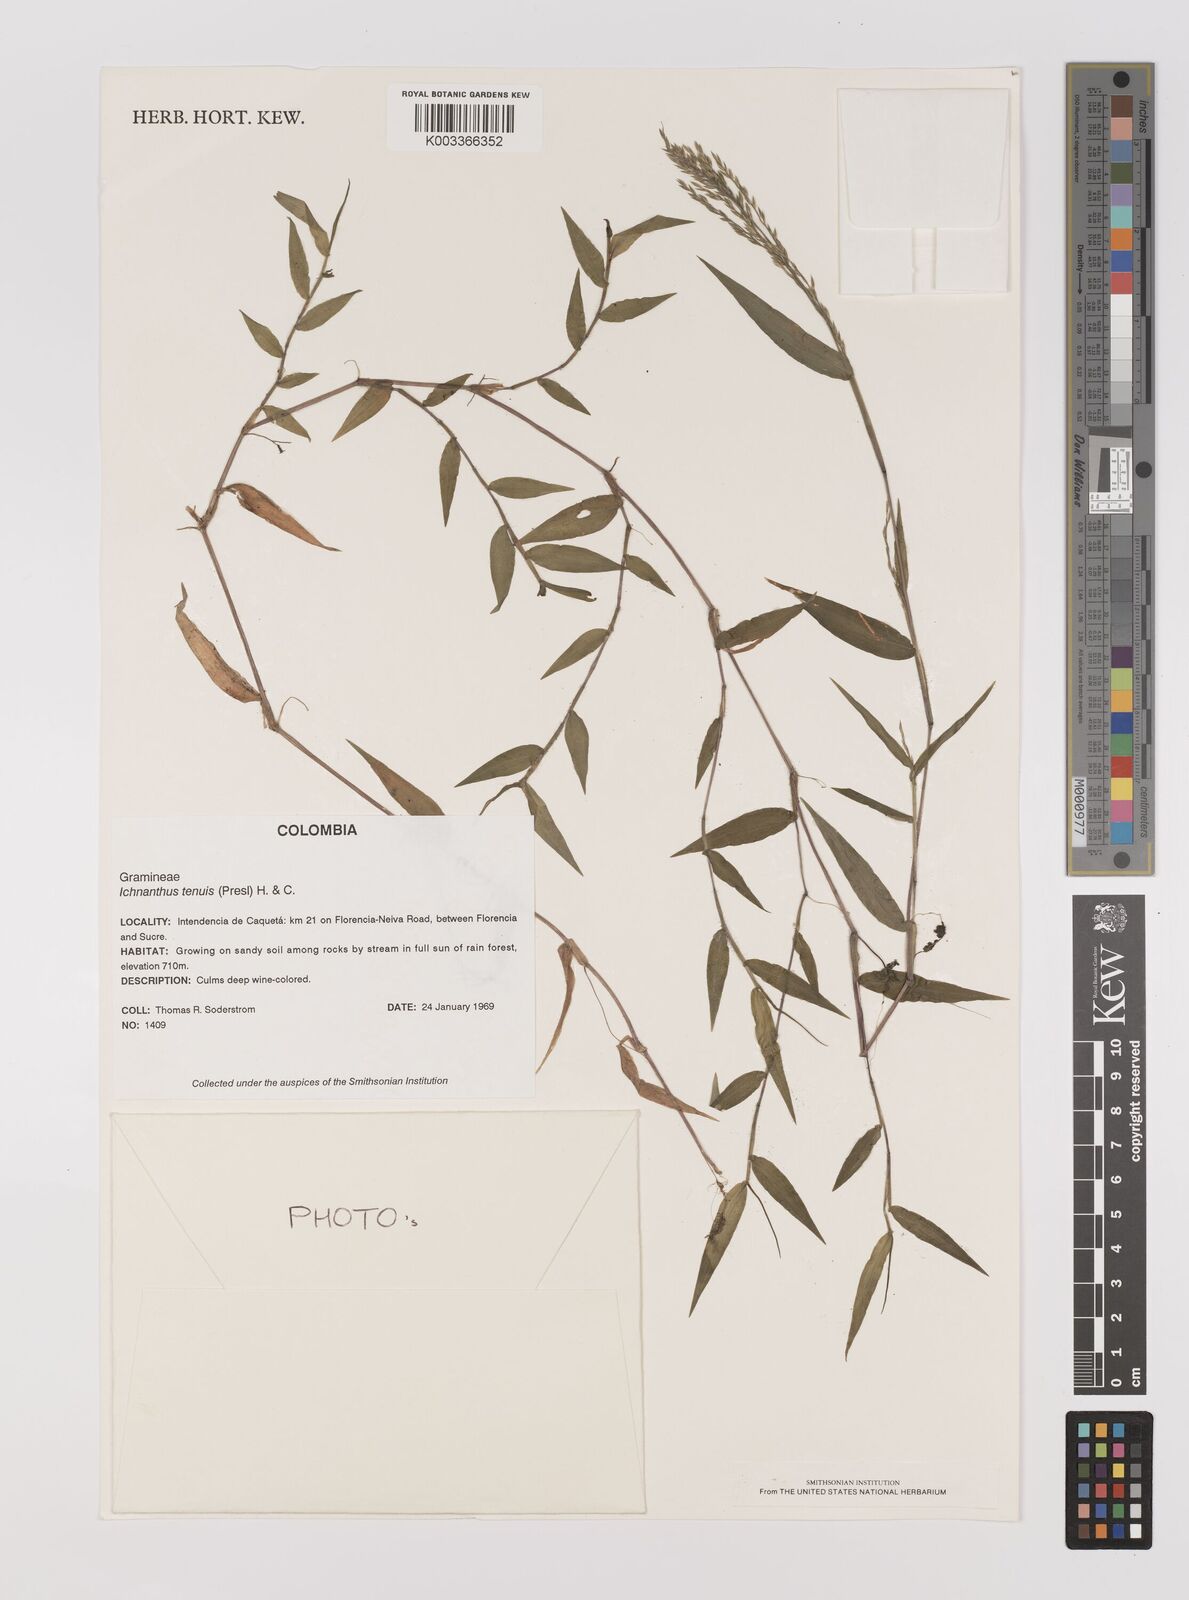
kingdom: Plantae
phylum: Tracheophyta
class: Liliopsida
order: Poales
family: Poaceae
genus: Ichnanthus
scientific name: Ichnanthus tenuis
